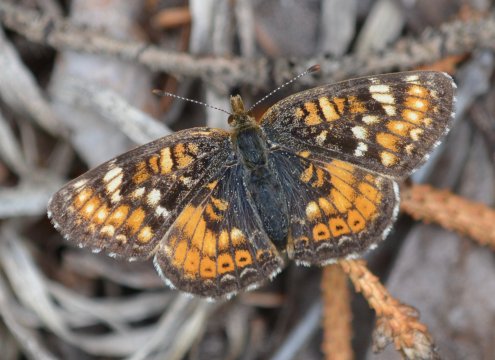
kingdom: Animalia
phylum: Arthropoda
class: Insecta
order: Lepidoptera
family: Nymphalidae
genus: Phyciodes
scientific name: Phyciodes tharos
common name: Field Crescent
